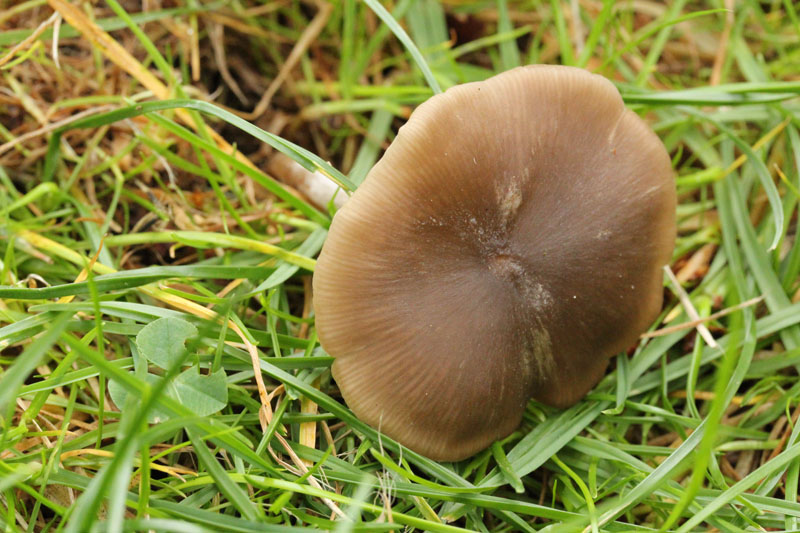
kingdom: Fungi
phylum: Basidiomycota
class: Agaricomycetes
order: Agaricales
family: Entolomataceae
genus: Entoloma
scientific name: Entoloma sericeum
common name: silkeglinsende rødblad
